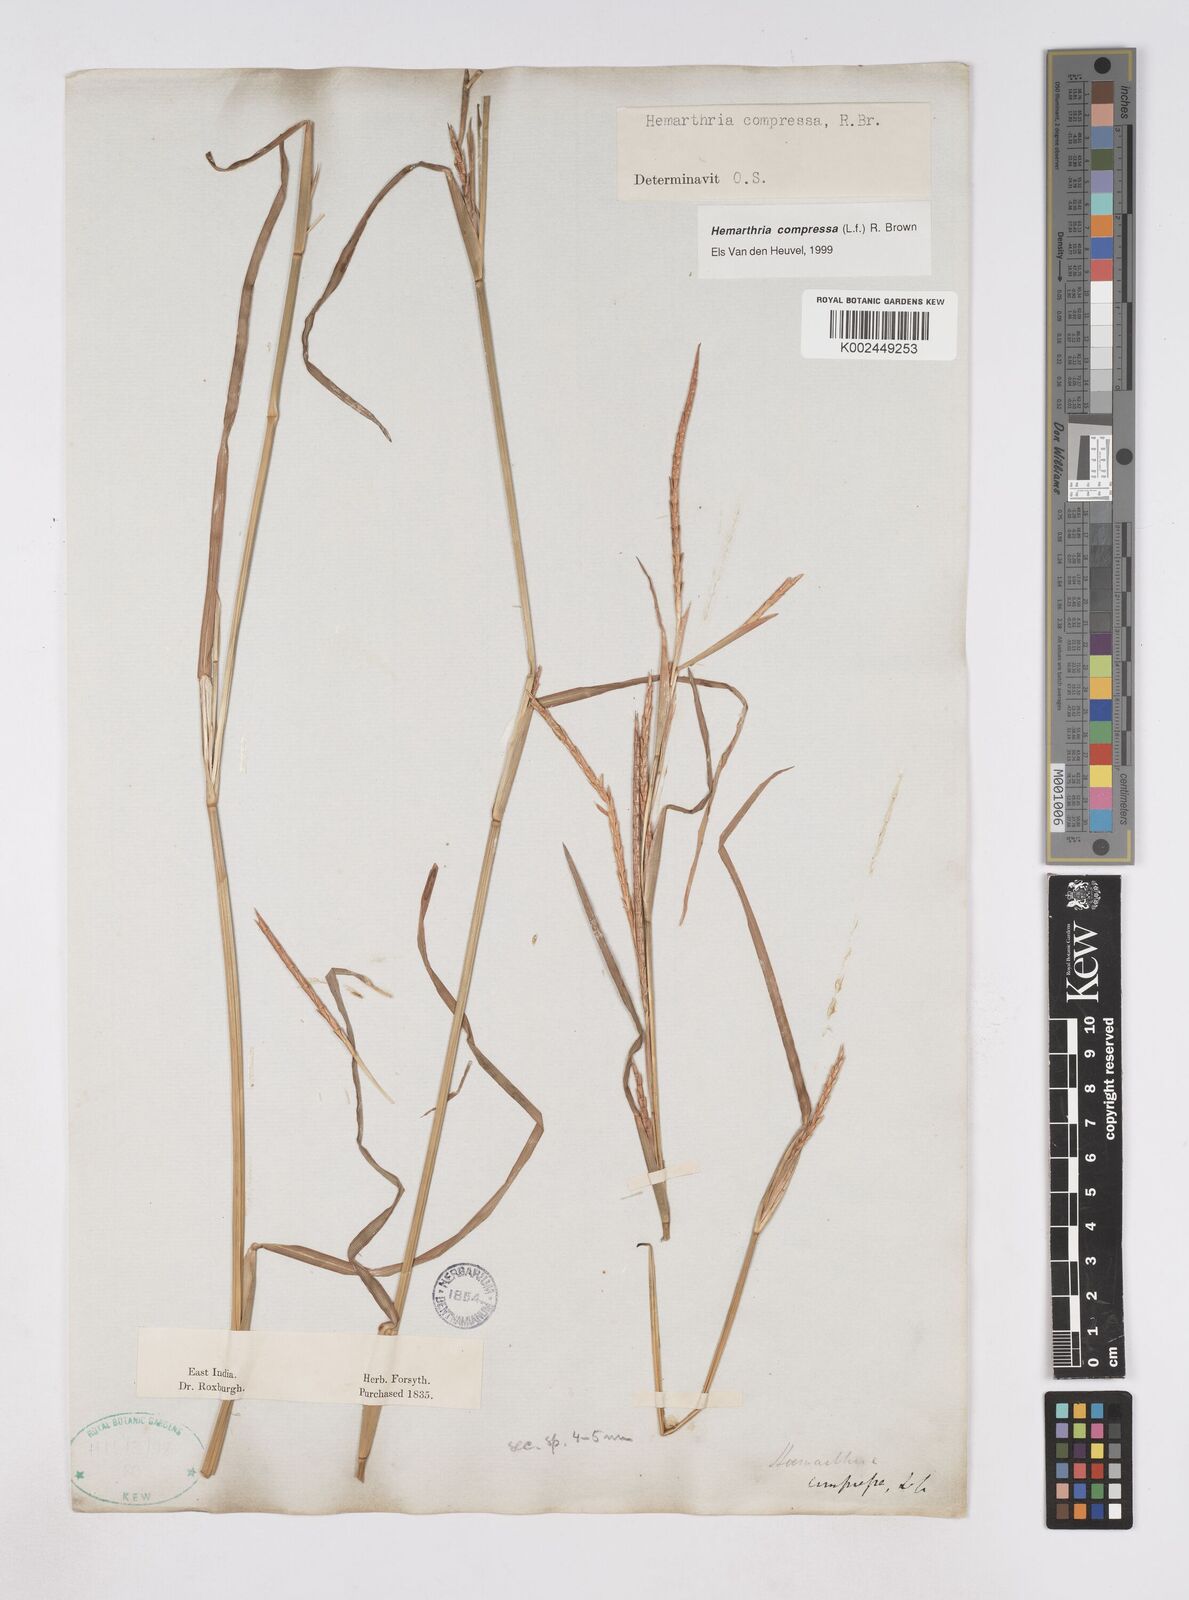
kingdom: Plantae
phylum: Tracheophyta
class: Liliopsida
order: Poales
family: Poaceae
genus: Hemarthria
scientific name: Hemarthria compressa
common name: Whip grass
